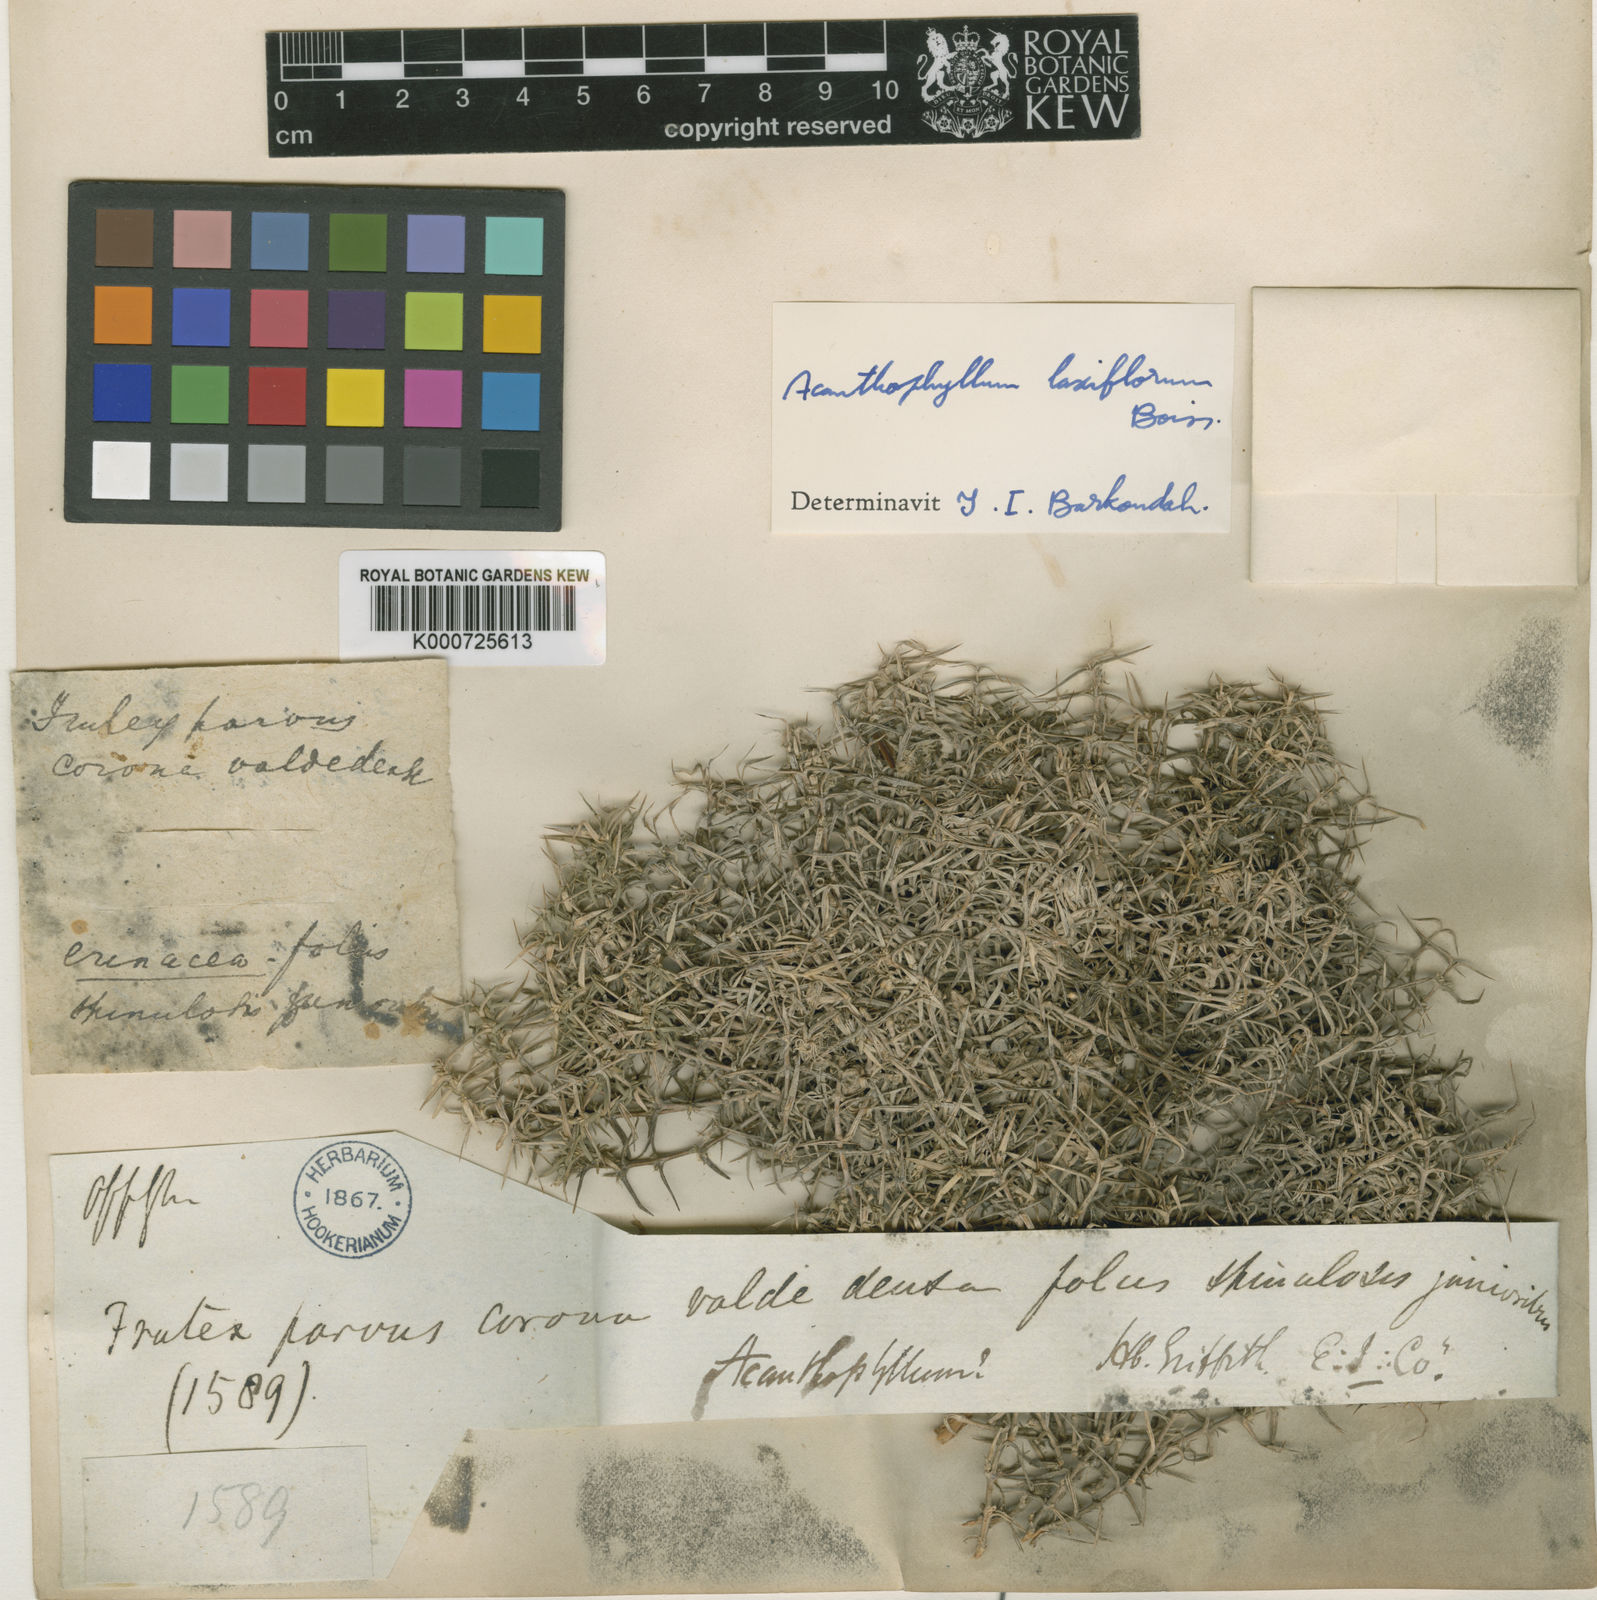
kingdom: Plantae
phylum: Tracheophyta
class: Magnoliopsida
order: Caryophyllales
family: Caryophyllaceae
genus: Acanthophyllum
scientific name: Acanthophyllum laxiflorum
